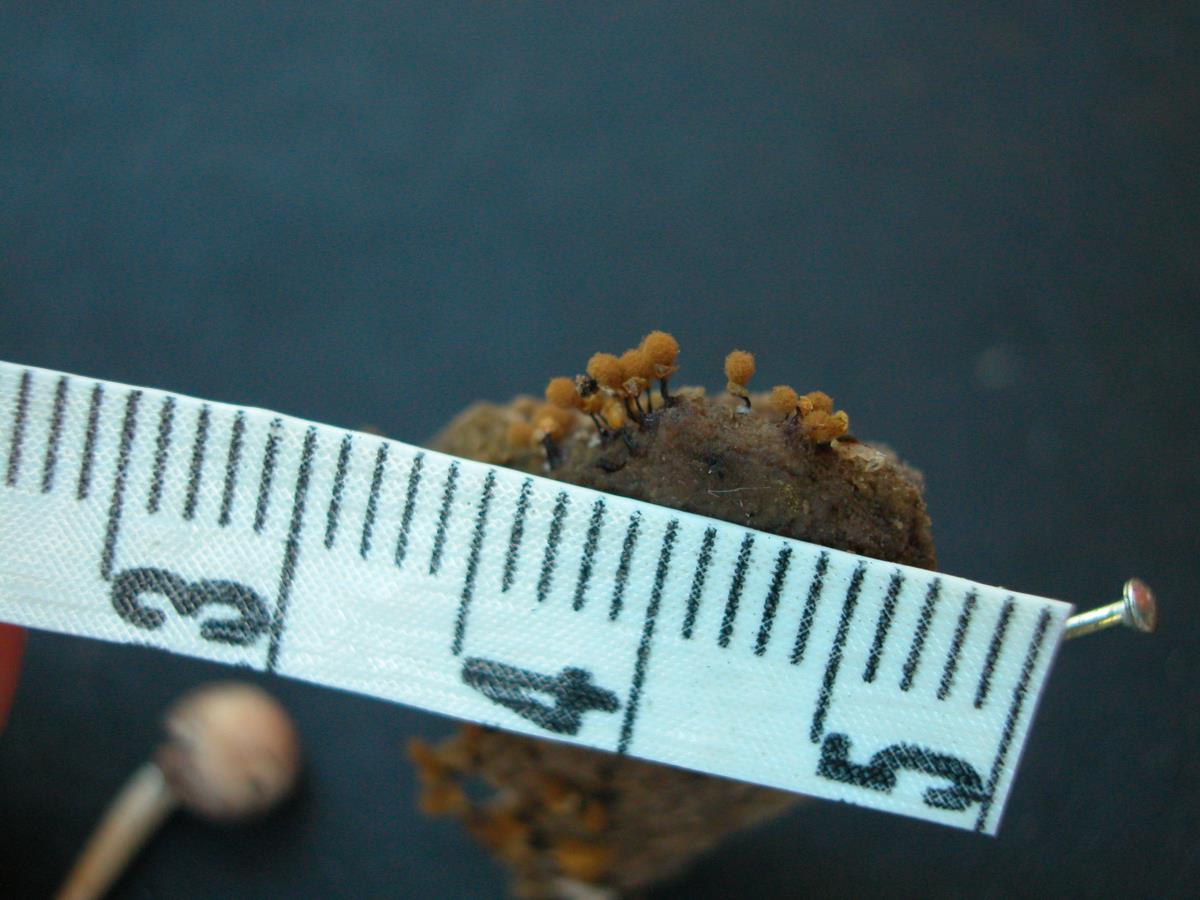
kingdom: Protozoa
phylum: Mycetozoa
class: Myxomycetes
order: Trichiales
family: Arcyriaceae
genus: Hemitrichia
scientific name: Hemitrichia calyculata
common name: Push pin slime mold
